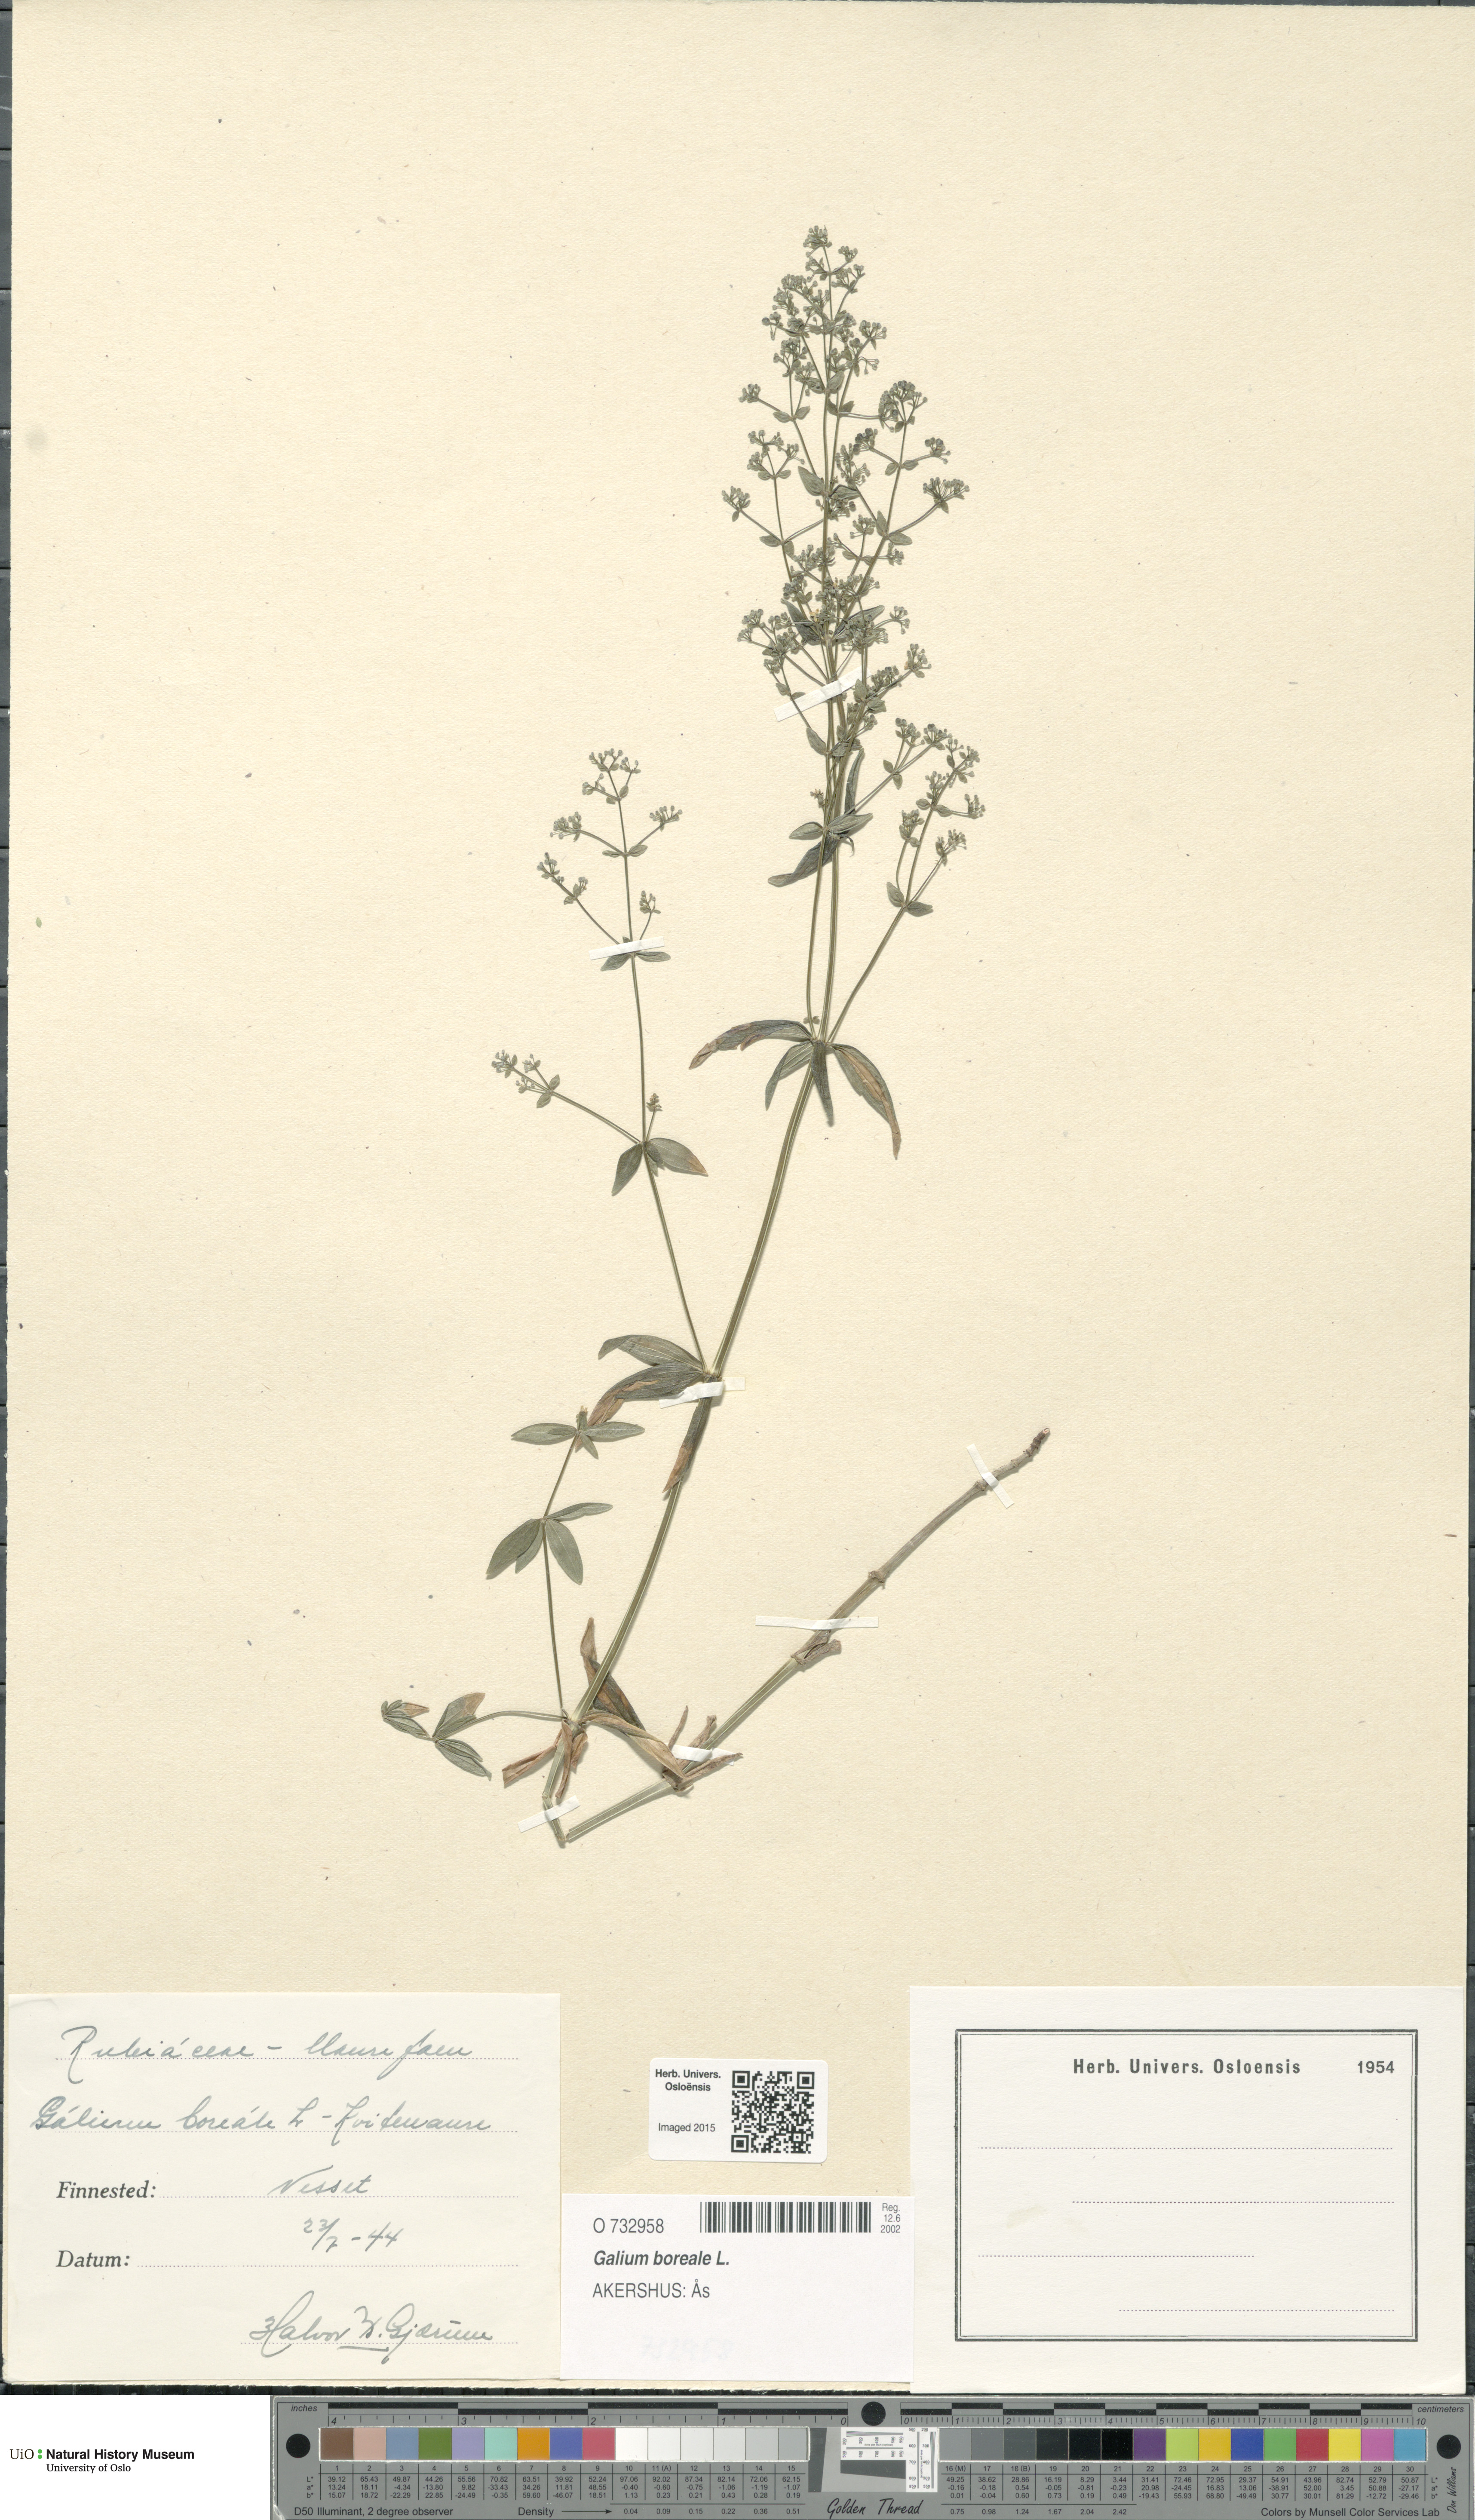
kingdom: Plantae
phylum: Tracheophyta
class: Magnoliopsida
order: Gentianales
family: Rubiaceae
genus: Galium
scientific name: Galium boreale
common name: Northern bedstraw
